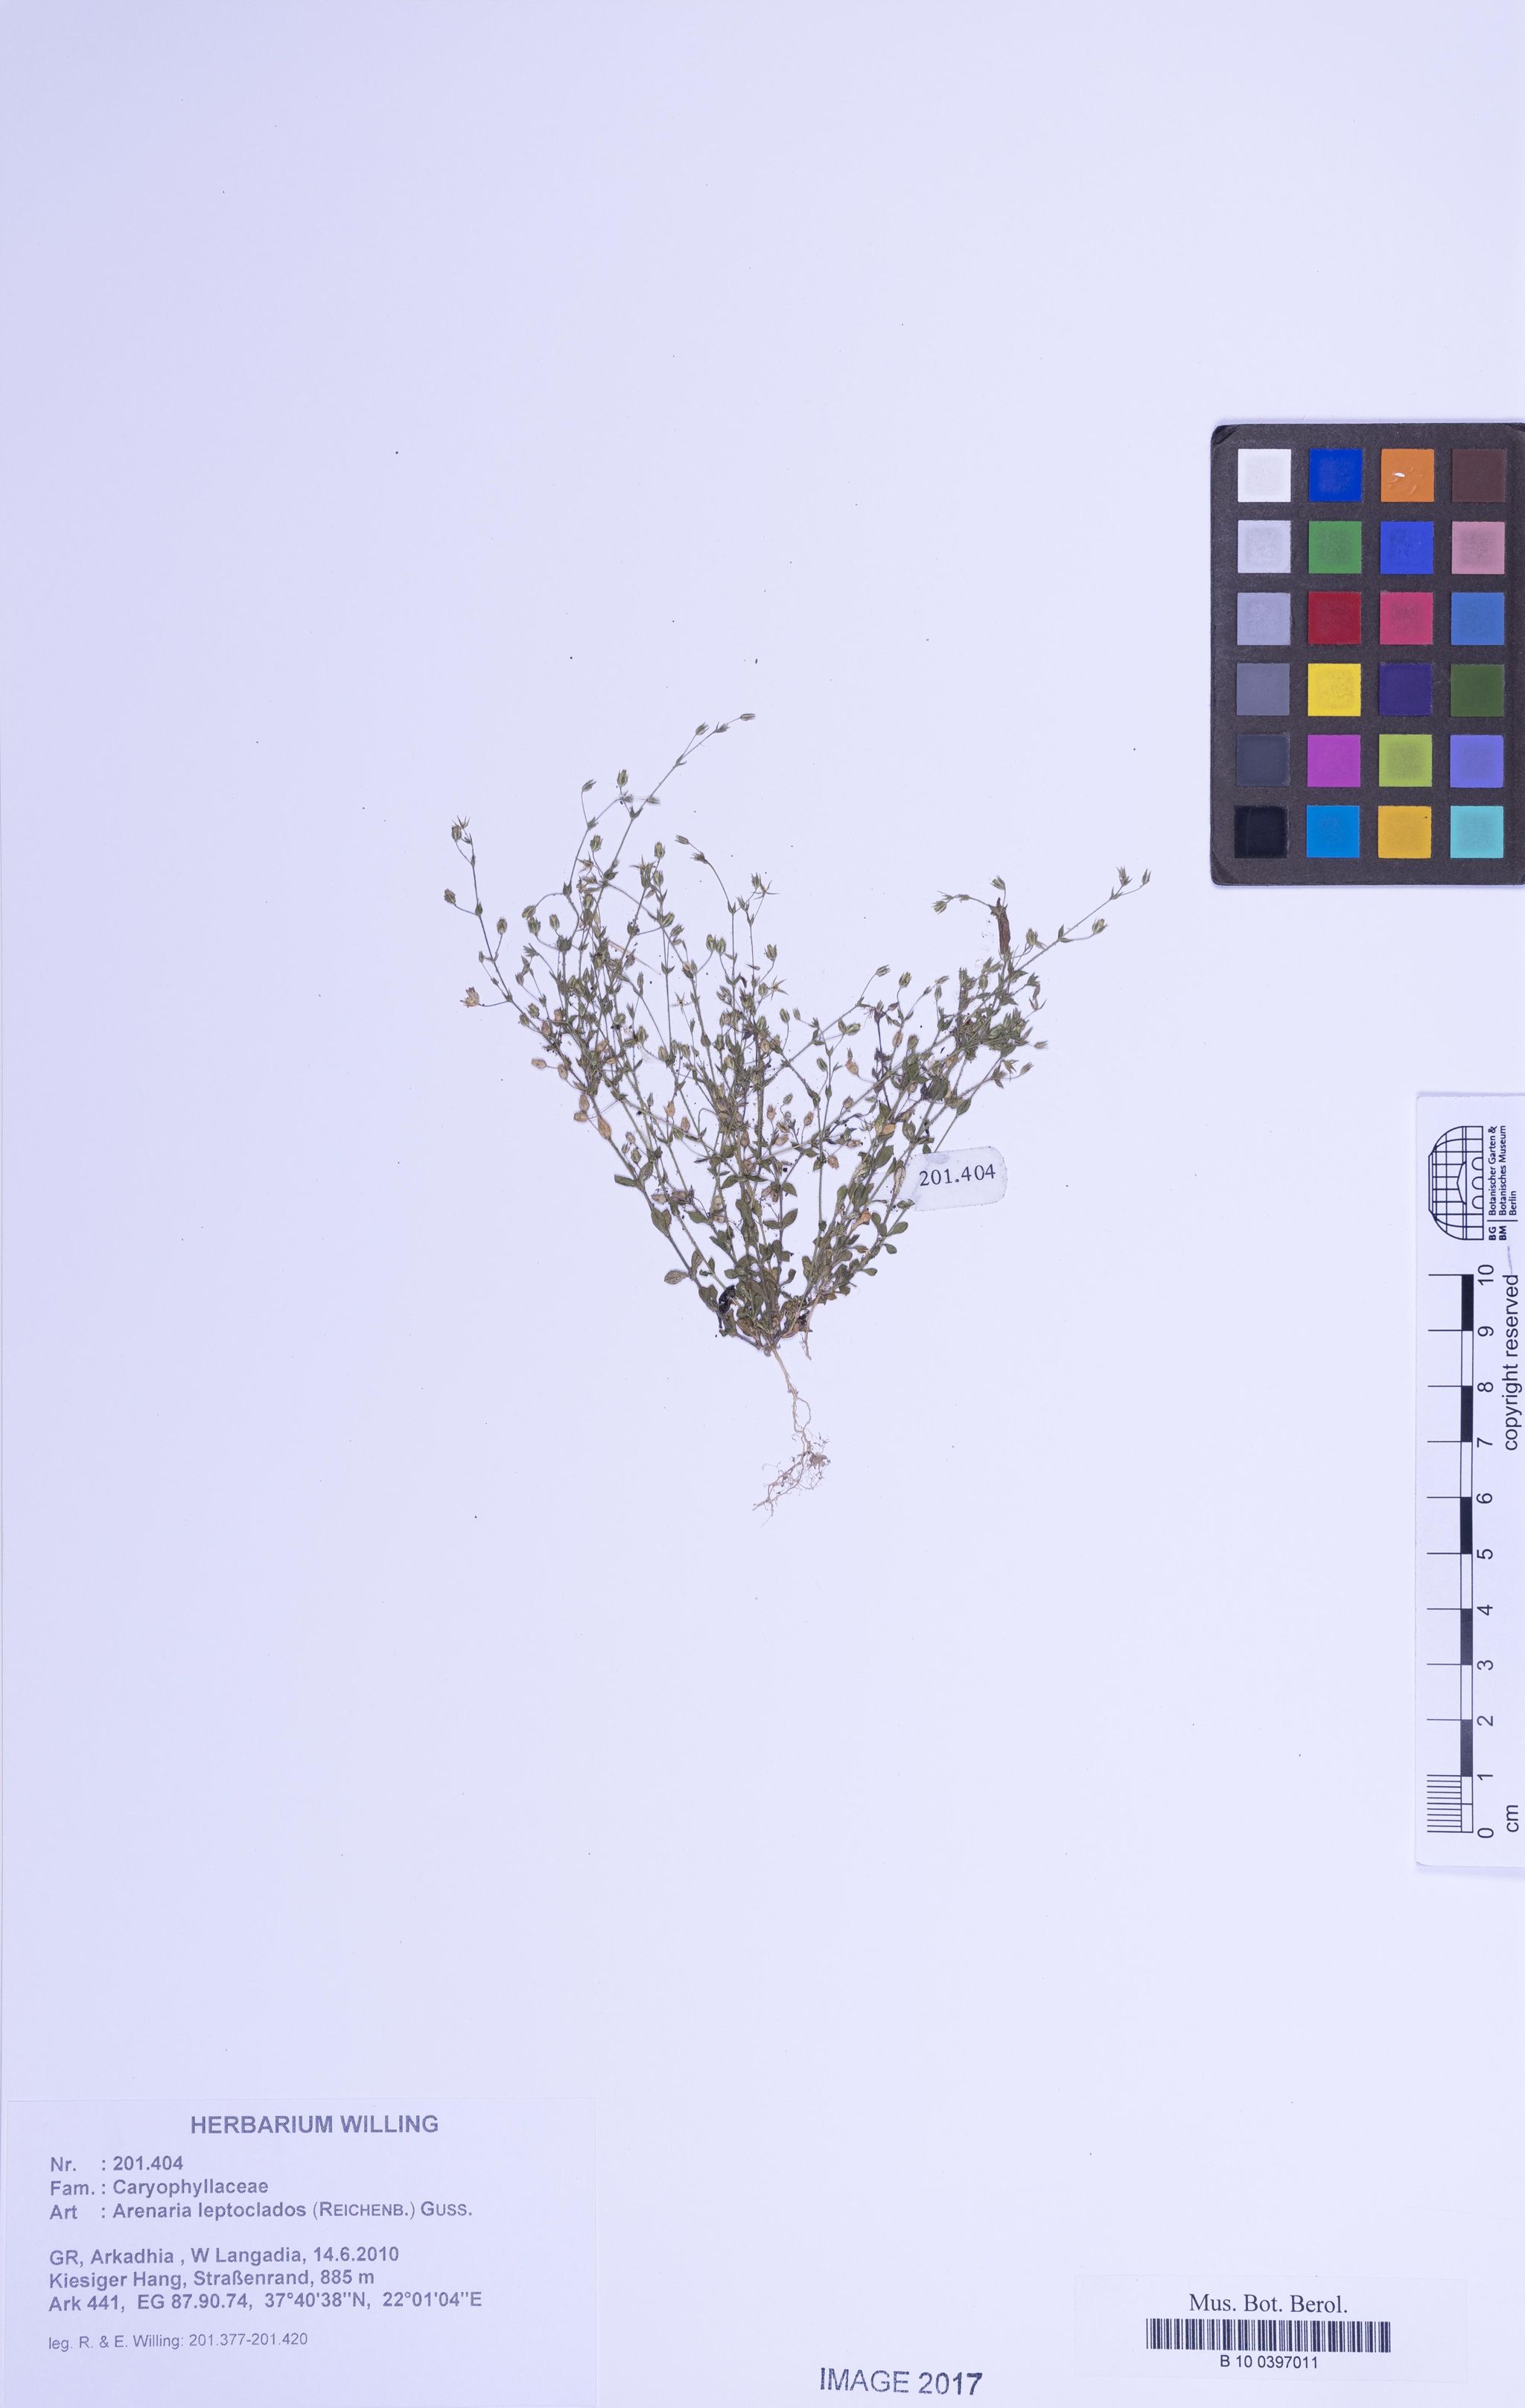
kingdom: Plantae
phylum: Tracheophyta
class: Magnoliopsida
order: Caryophyllales
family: Caryophyllaceae
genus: Arenaria
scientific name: Arenaria leptoclados
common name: Thyme-leaved sandwort
